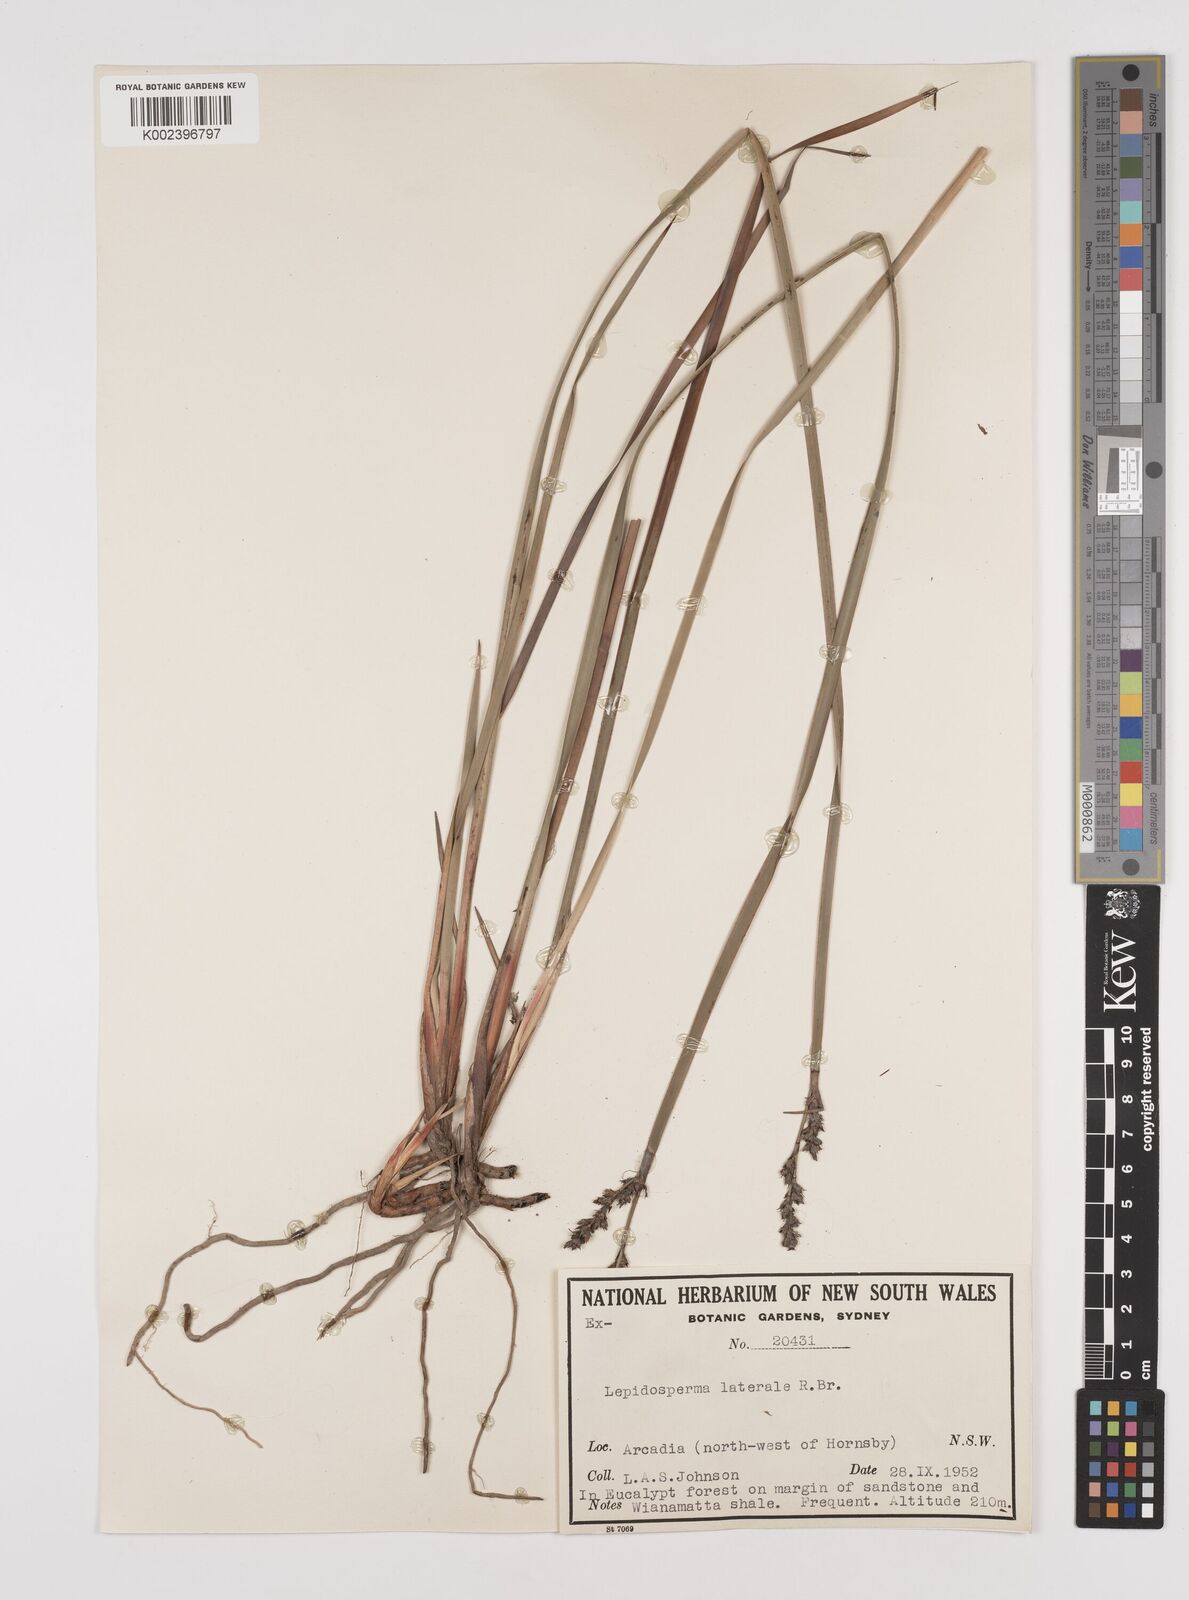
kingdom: Plantae
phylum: Tracheophyta
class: Liliopsida
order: Poales
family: Cyperaceae
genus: Lepidosperma
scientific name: Lepidosperma laterale
